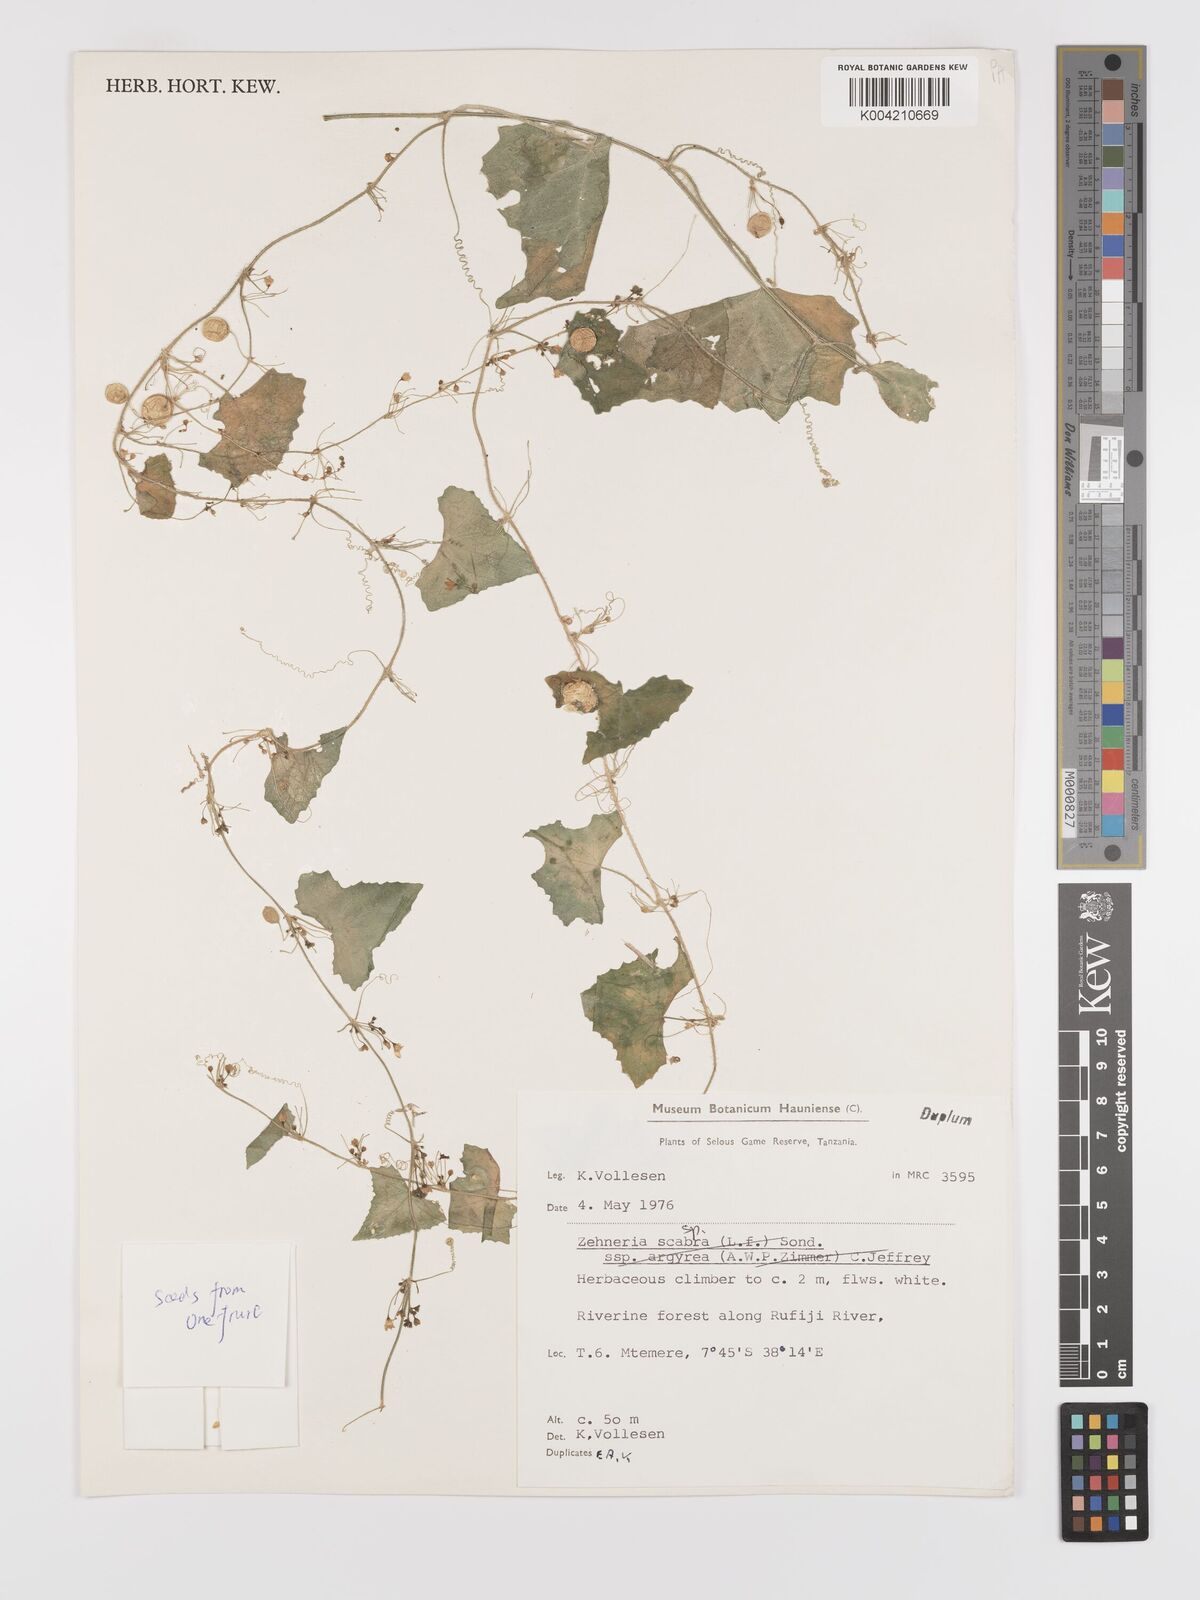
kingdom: Plantae
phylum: Tracheophyta
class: Magnoliopsida
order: Cucurbitales
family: Cucurbitaceae
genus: Zehneria
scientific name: Zehneria
